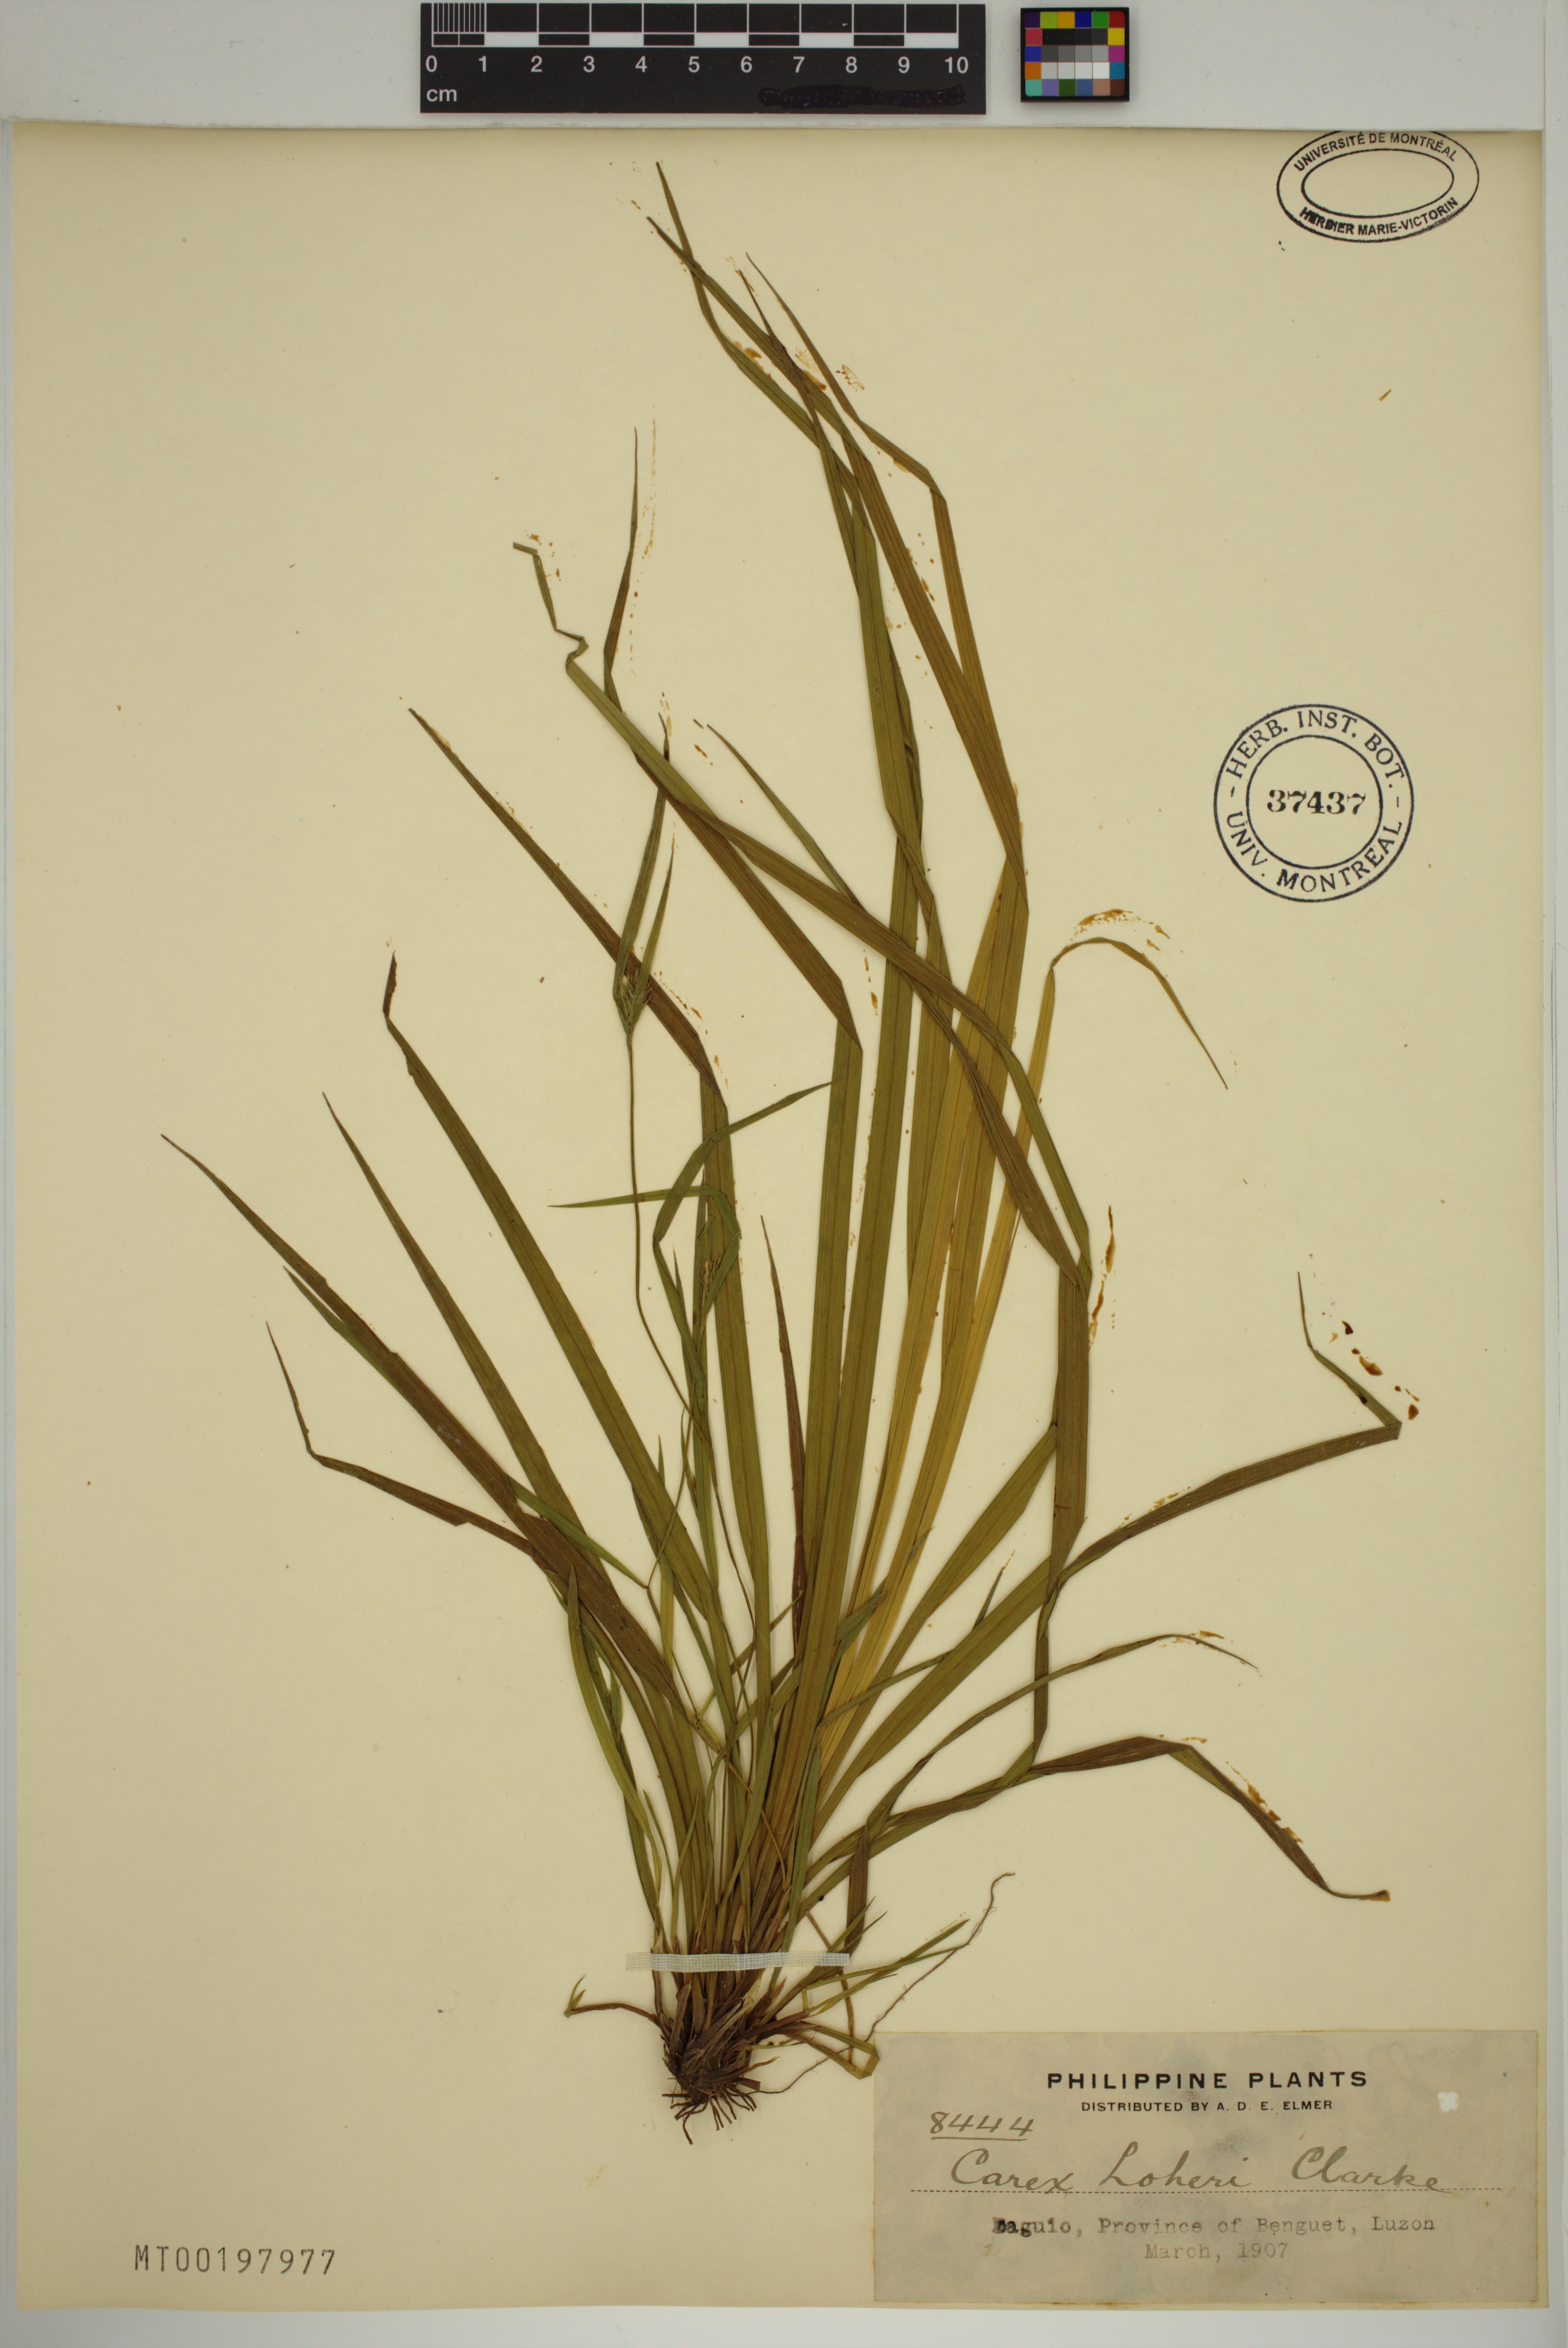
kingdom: Plantae
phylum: Tracheophyta
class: Liliopsida
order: Poales
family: Cyperaceae
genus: Carex
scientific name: Carex oxyphylla
